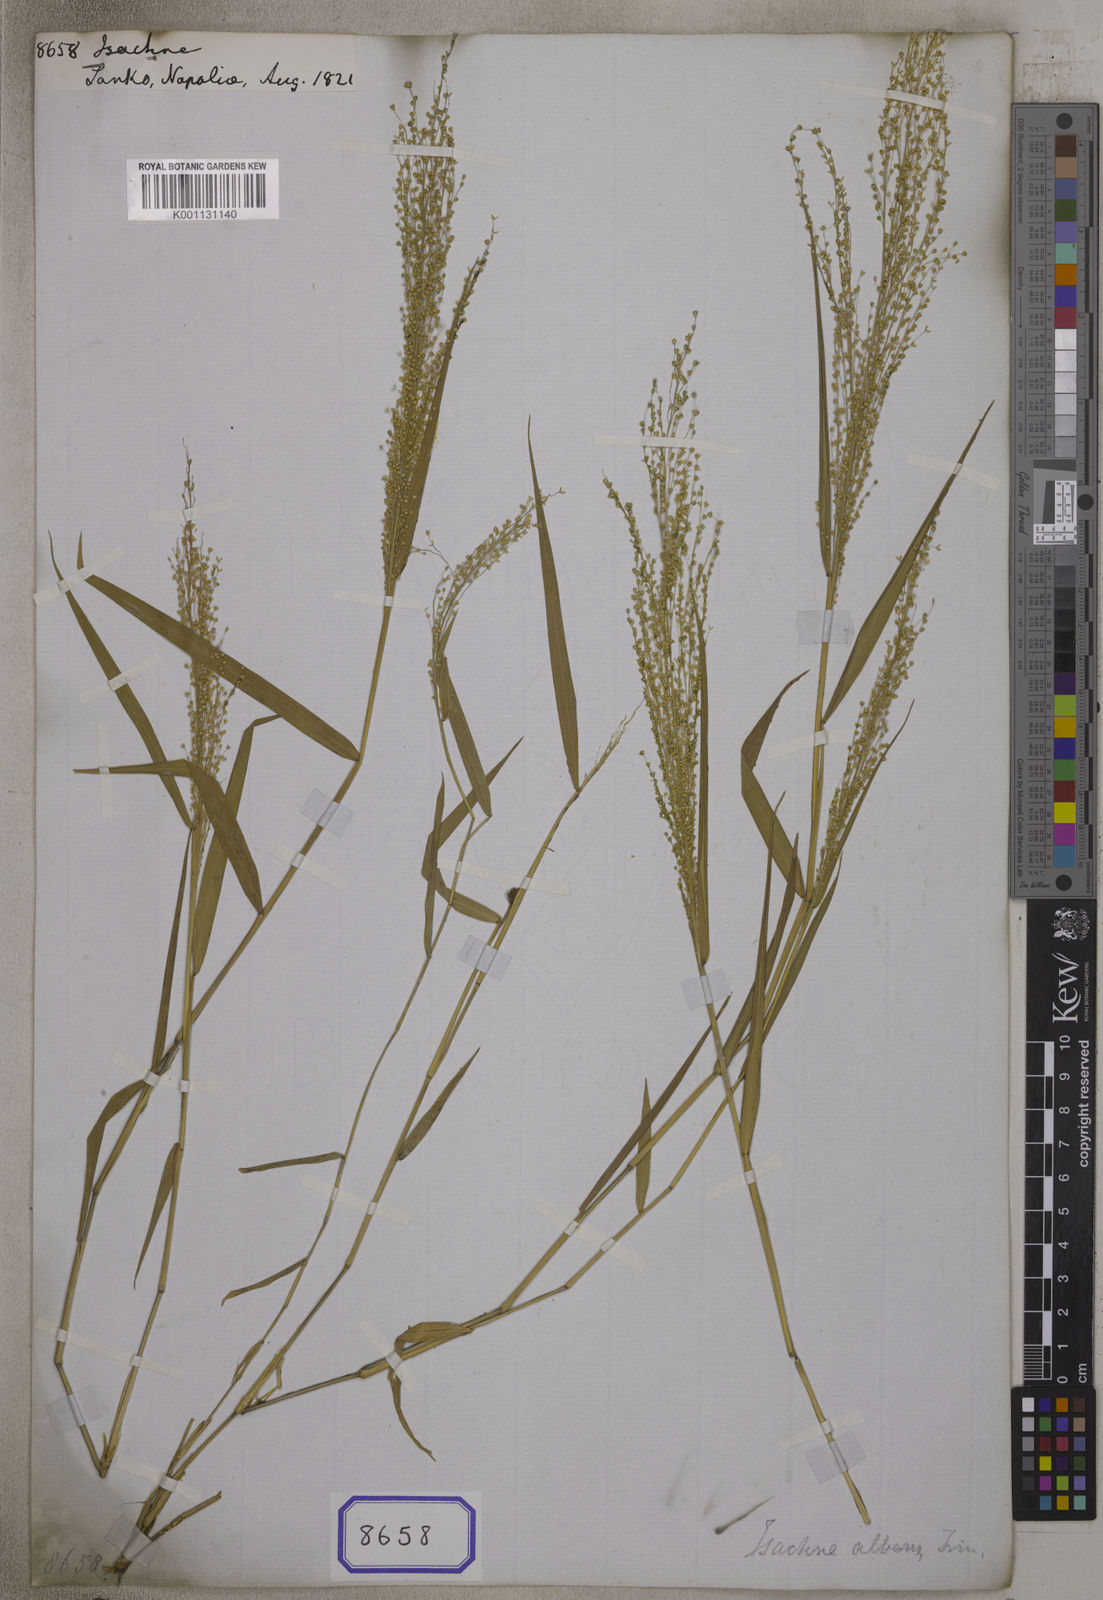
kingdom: Plantae
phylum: Tracheophyta
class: Liliopsida
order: Poales
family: Poaceae
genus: Isachne
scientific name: Isachne
